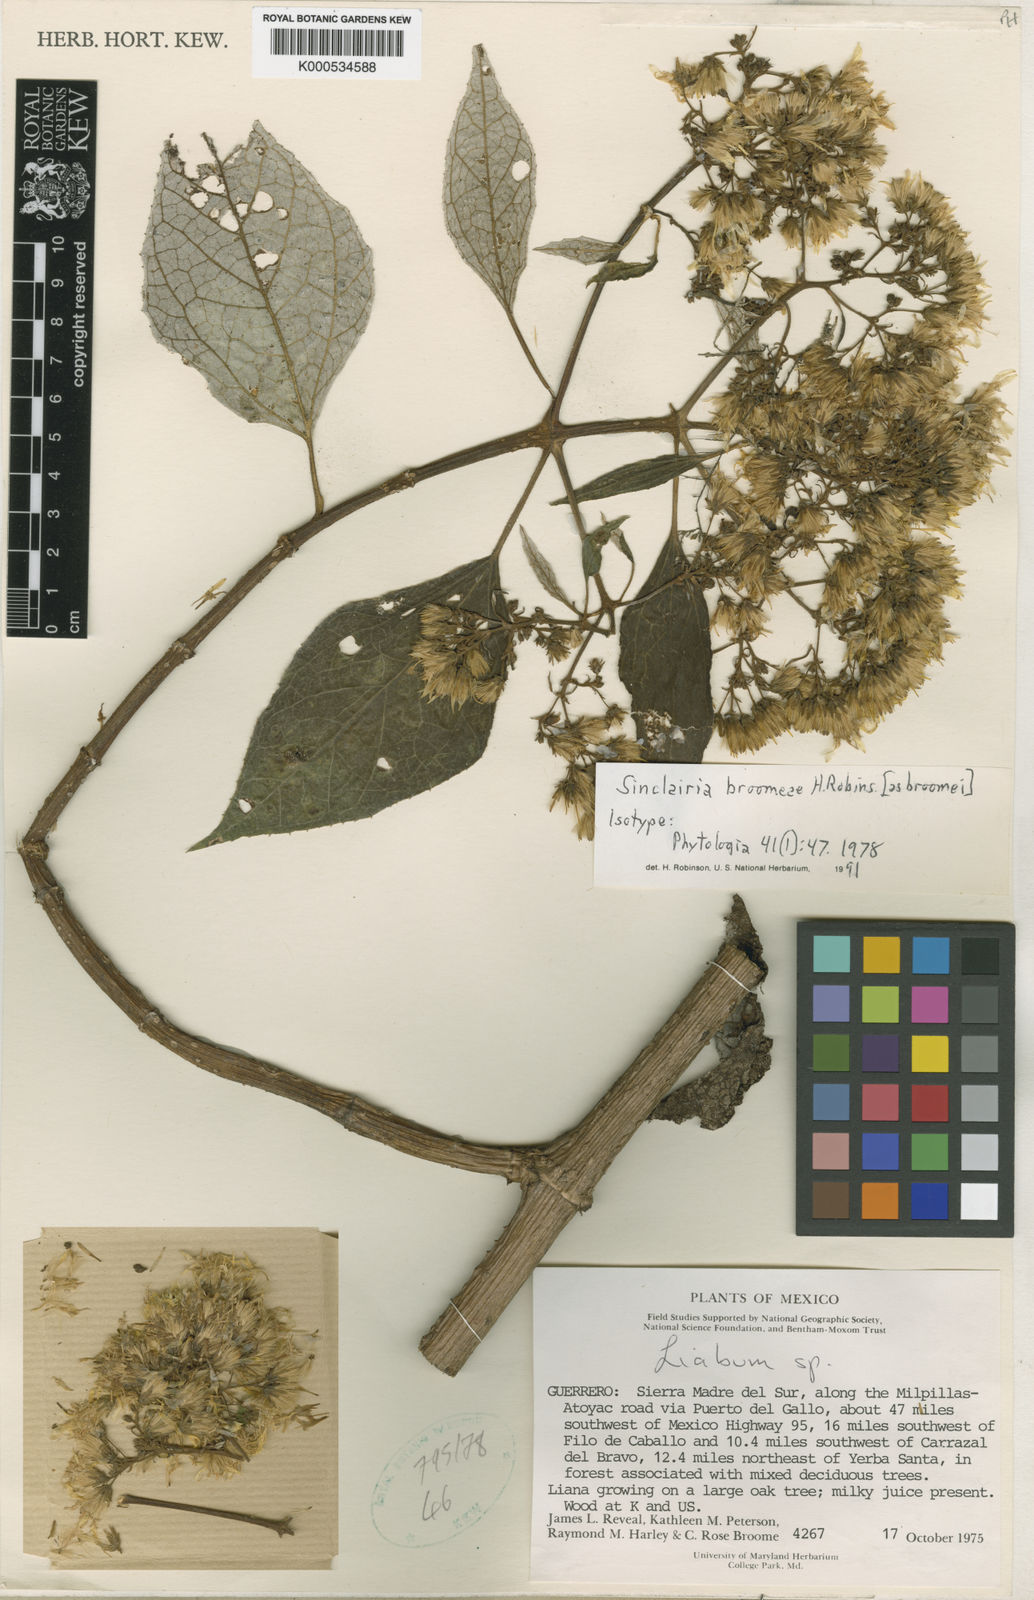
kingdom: Plantae
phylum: Tracheophyta
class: Magnoliopsida
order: Asterales
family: Asteraceae
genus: Sinclairia
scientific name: Sinclairia broomeae
